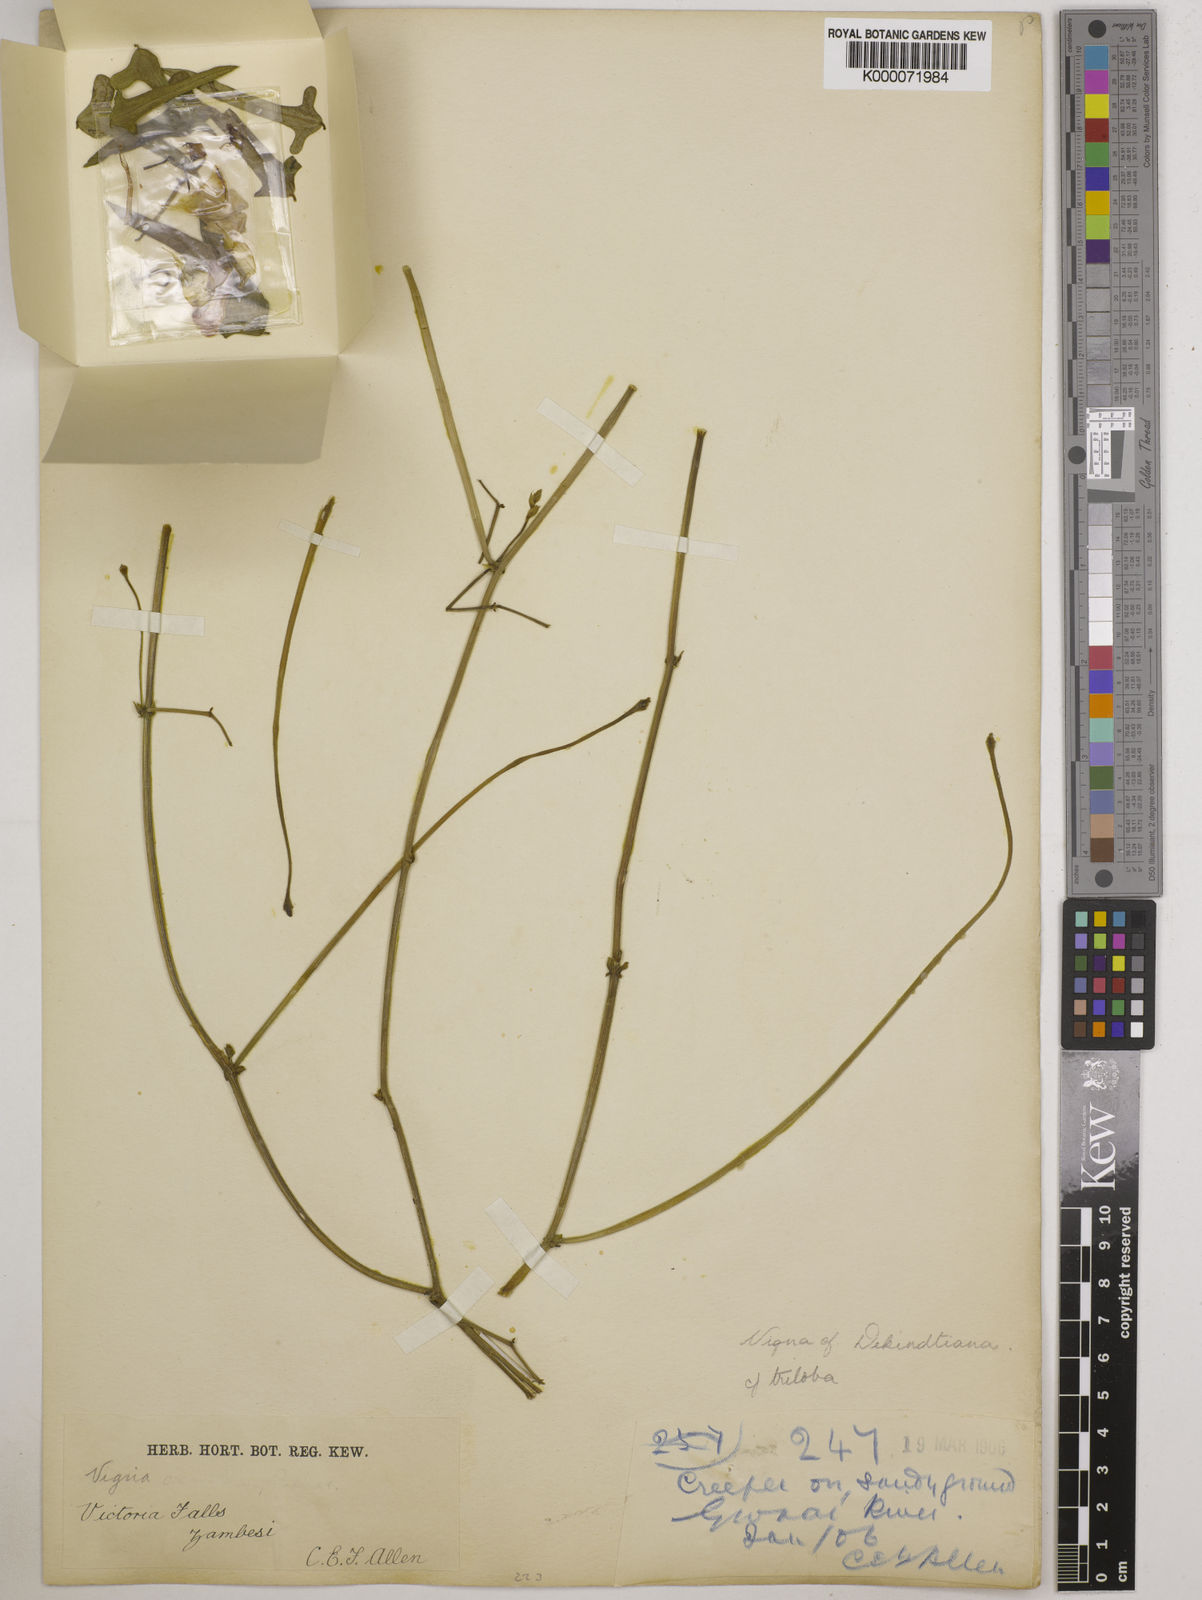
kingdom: Plantae
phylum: Tracheophyta
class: Magnoliopsida
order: Fabales
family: Fabaceae
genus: Vigna
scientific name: Vigna unguiculata
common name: Cowpea
